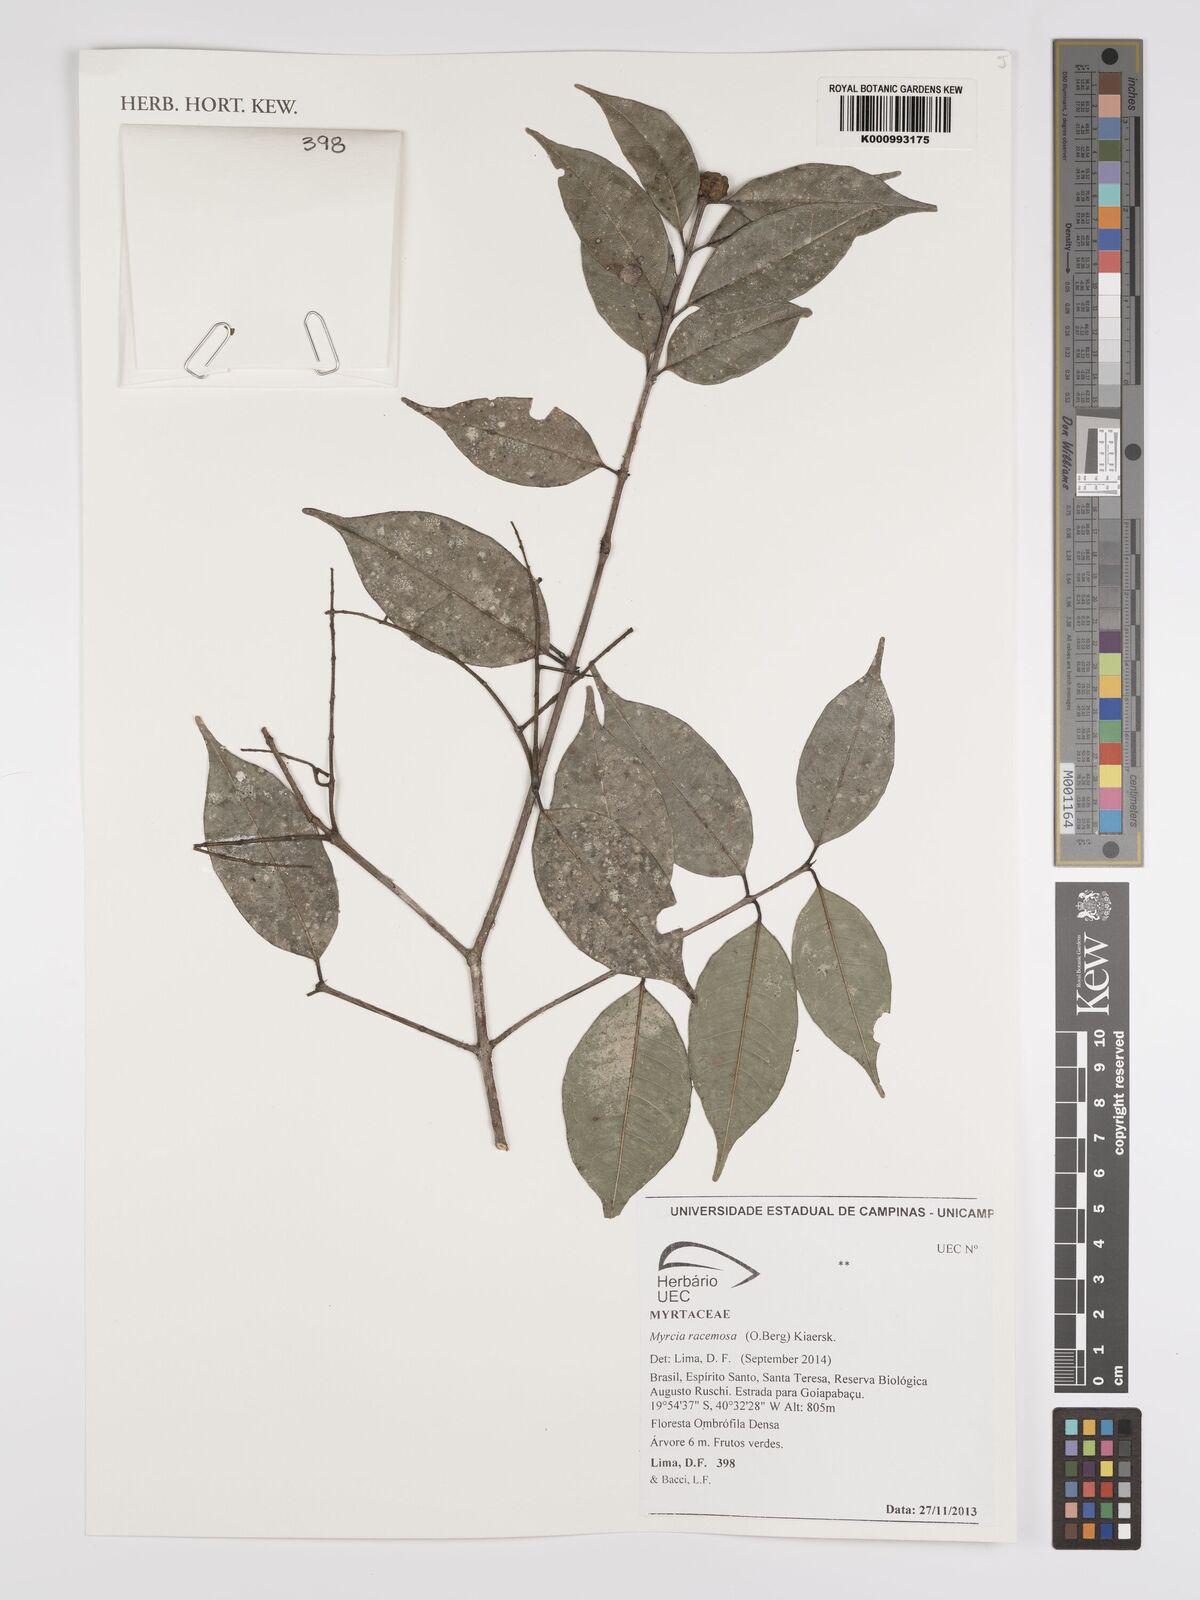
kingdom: Plantae
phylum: Tracheophyta
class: Magnoliopsida
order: Myrtales
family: Myrtaceae
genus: Myrcia
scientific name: Myrcia racemosa
